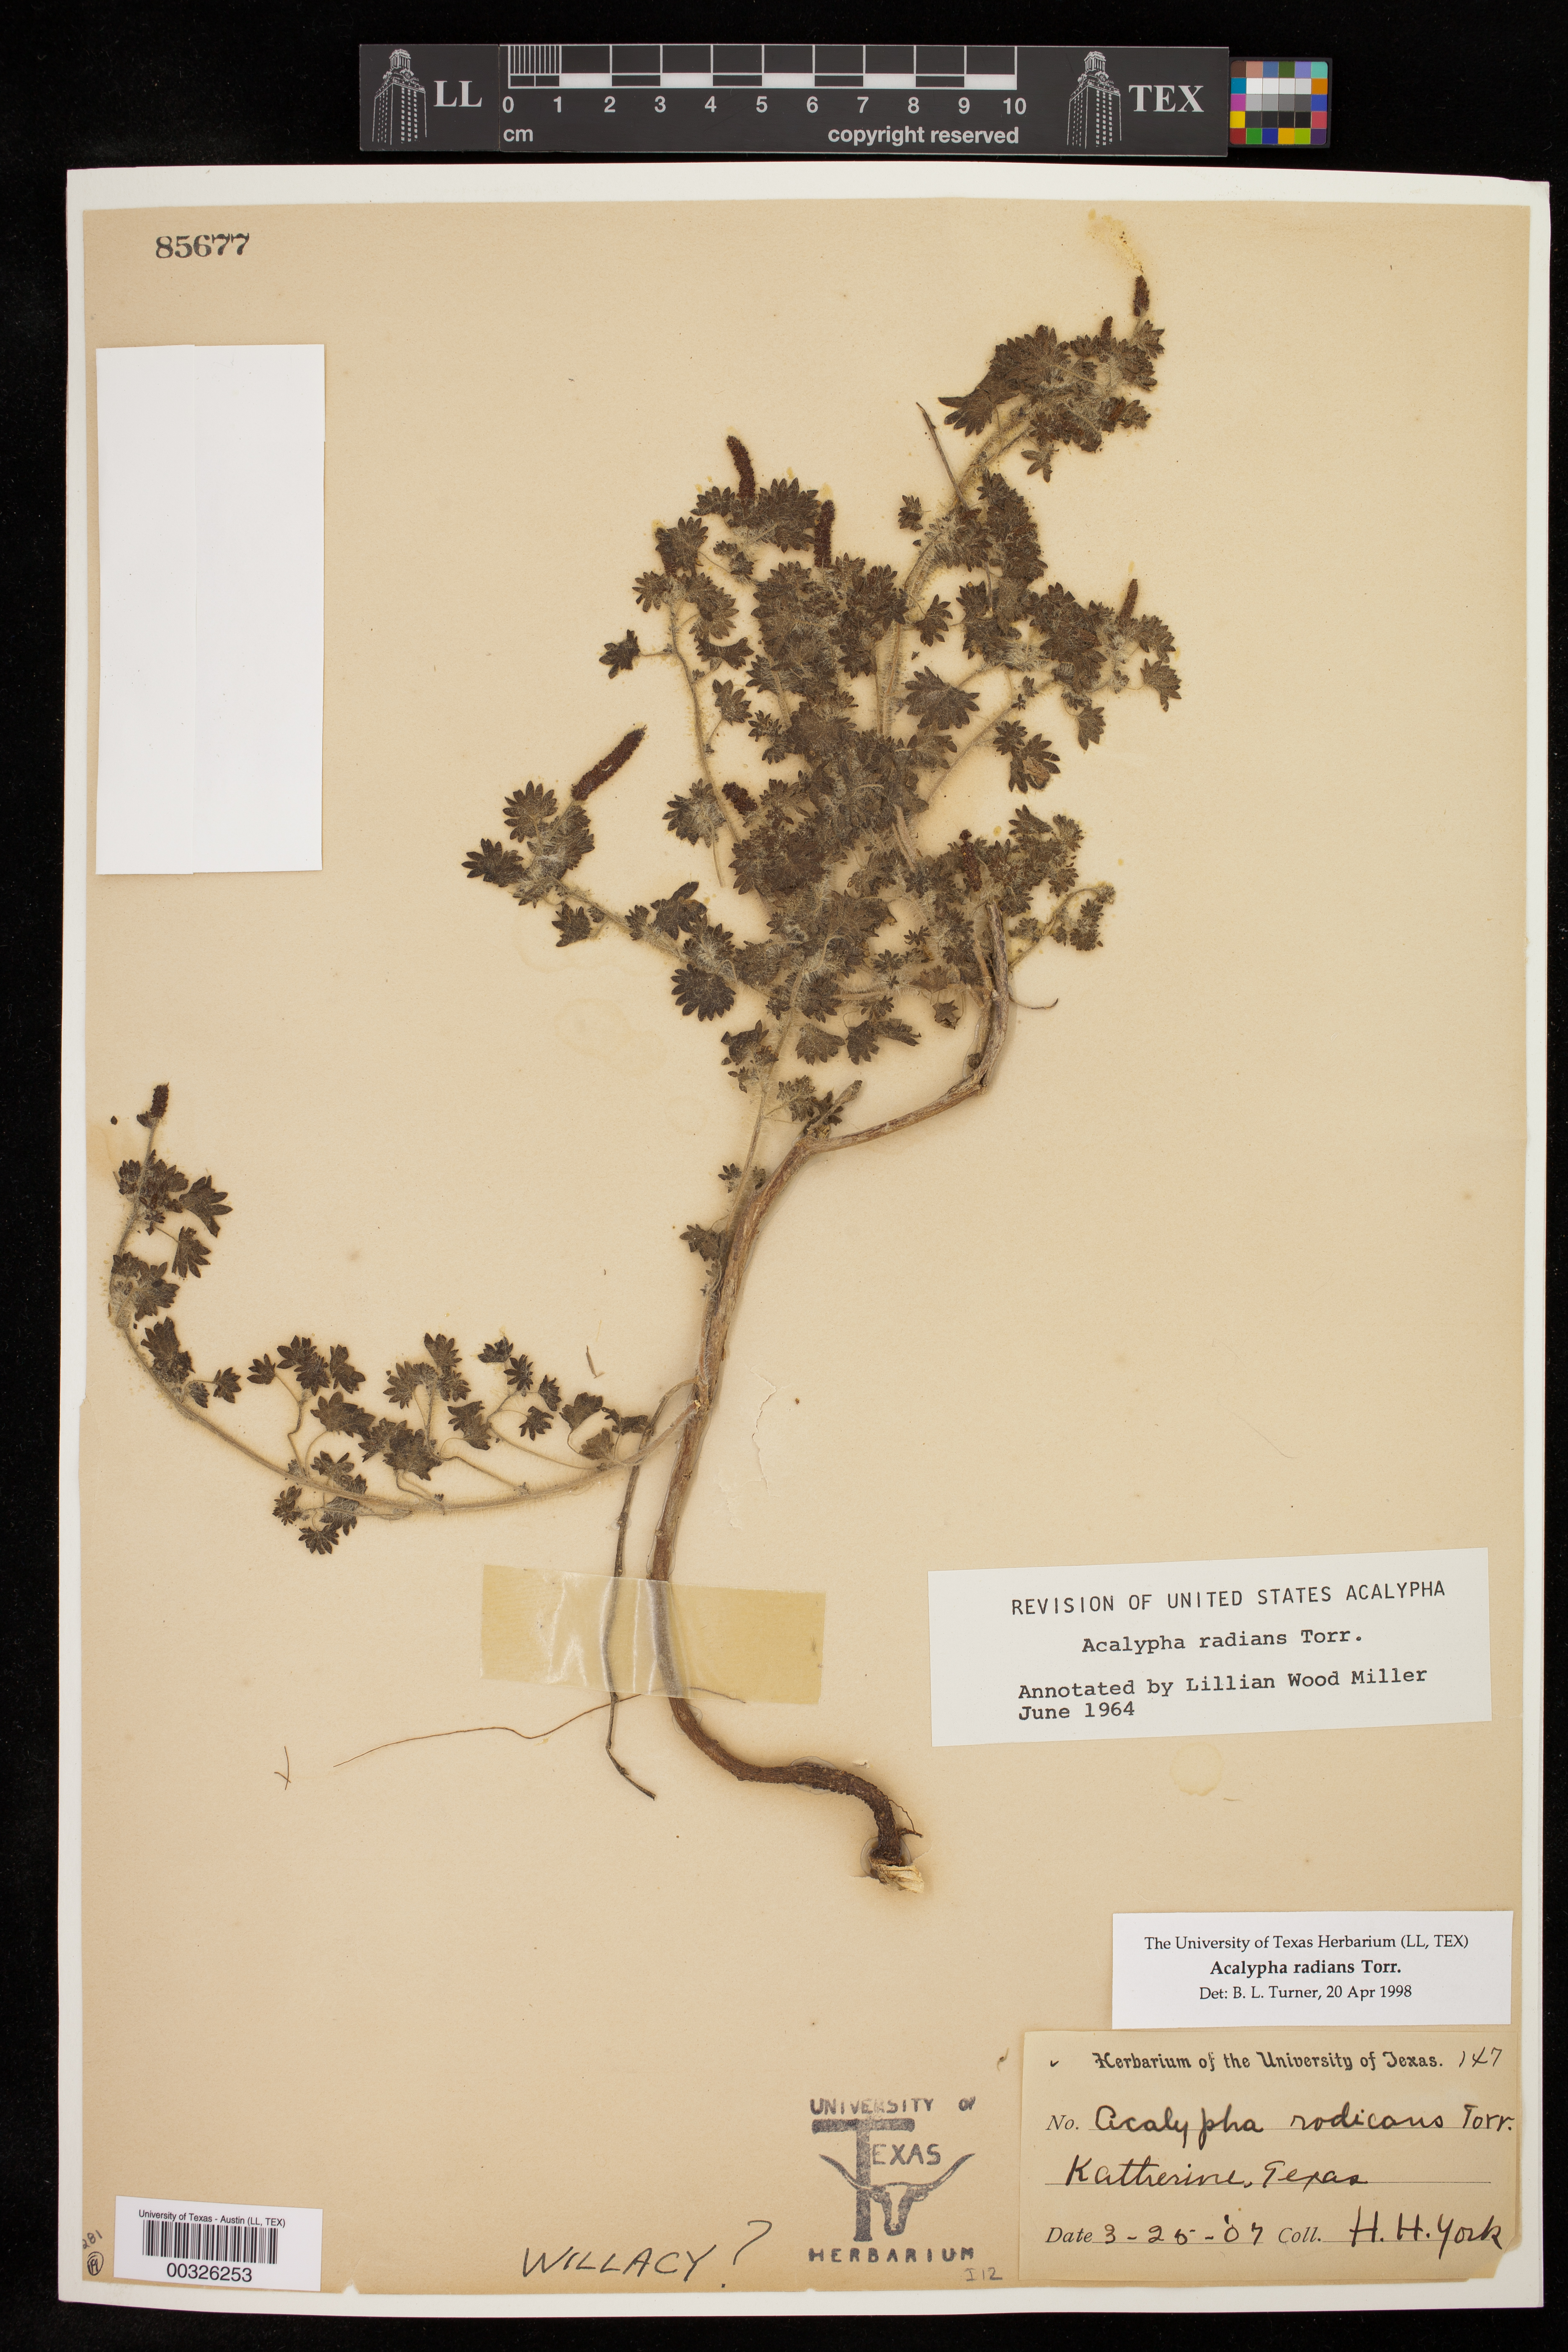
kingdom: Plantae
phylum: Tracheophyta
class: Magnoliopsida
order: Malpighiales
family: Euphorbiaceae
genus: Acalypha
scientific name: Acalypha radians
